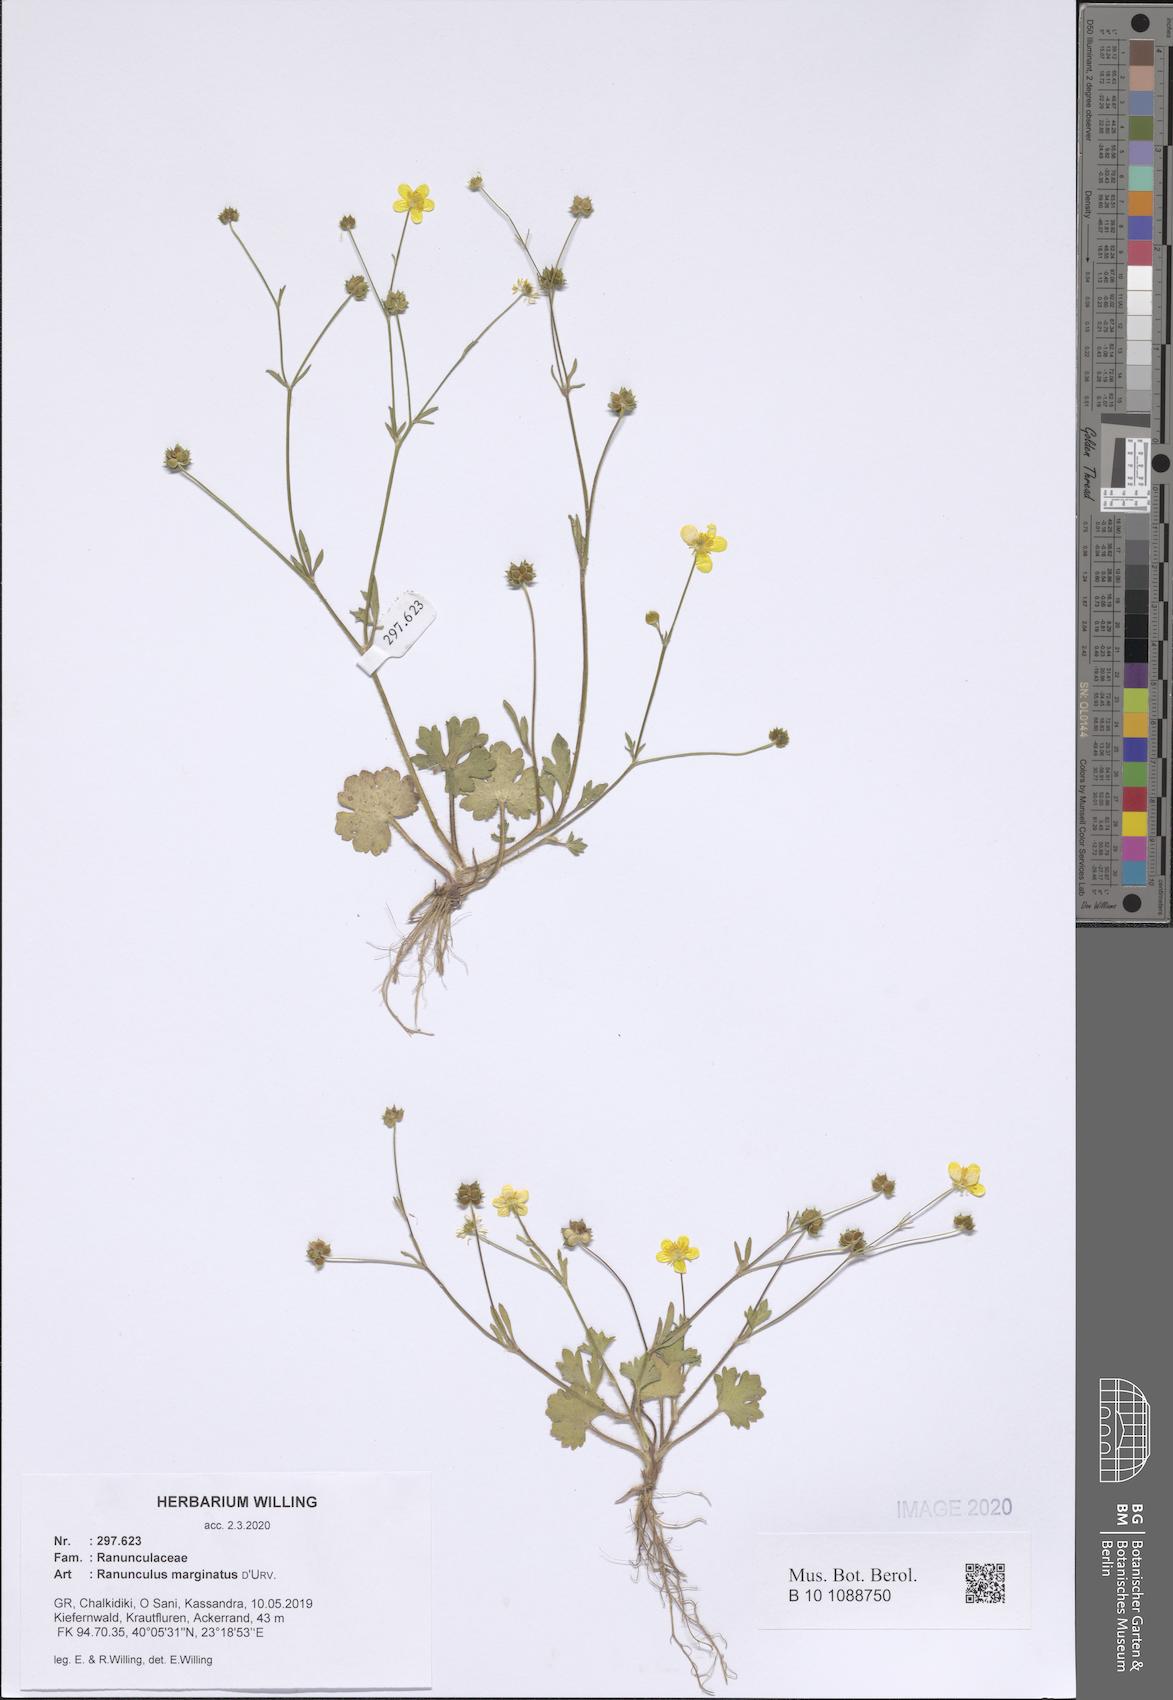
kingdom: Plantae
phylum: Tracheophyta
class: Magnoliopsida
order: Ranunculales
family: Ranunculaceae
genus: Ranunculus
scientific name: Ranunculus marginatus
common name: St. martin's buttercup
